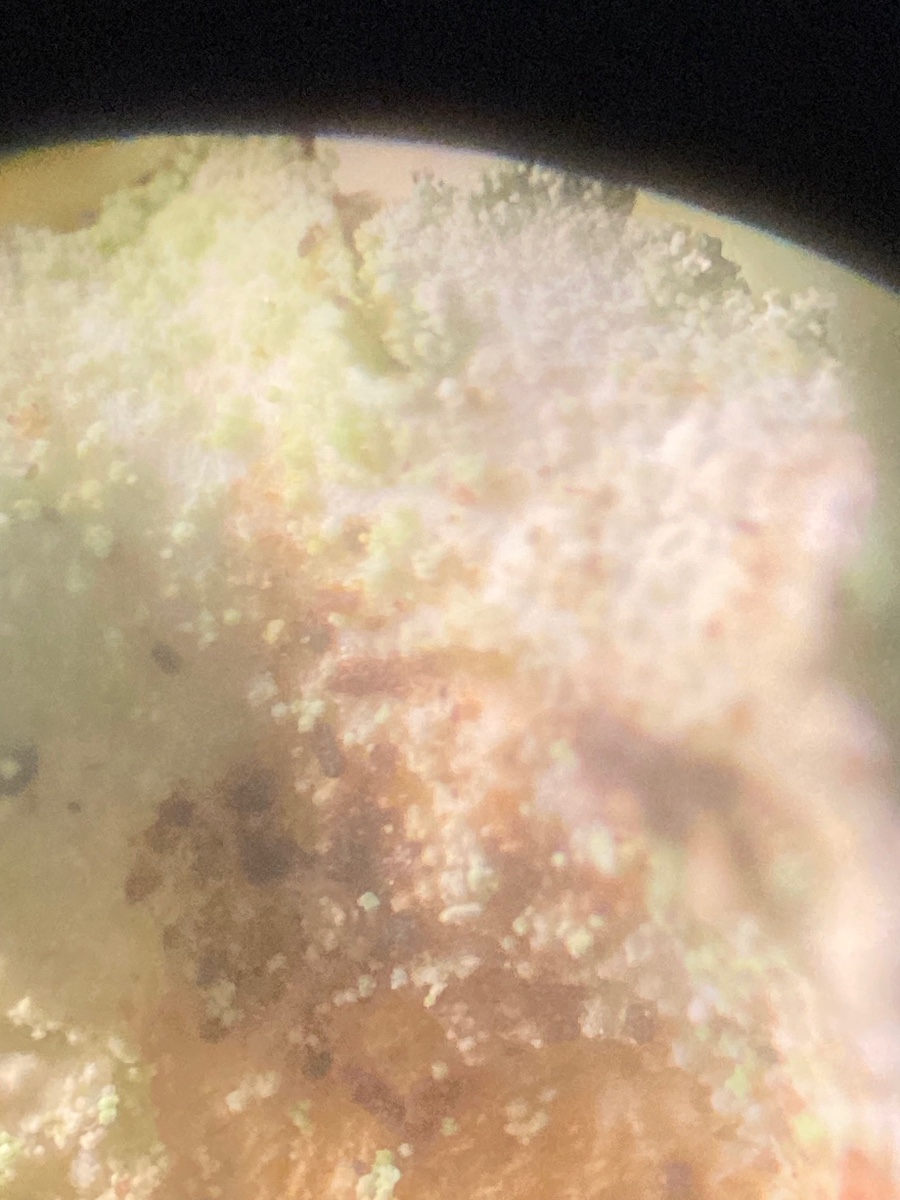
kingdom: Fungi
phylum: Ascomycota
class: Lecanoromycetes
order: Lecanorales
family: Cladoniaceae
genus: Cladonia
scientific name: Cladonia digitata
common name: finger-bægerlav
